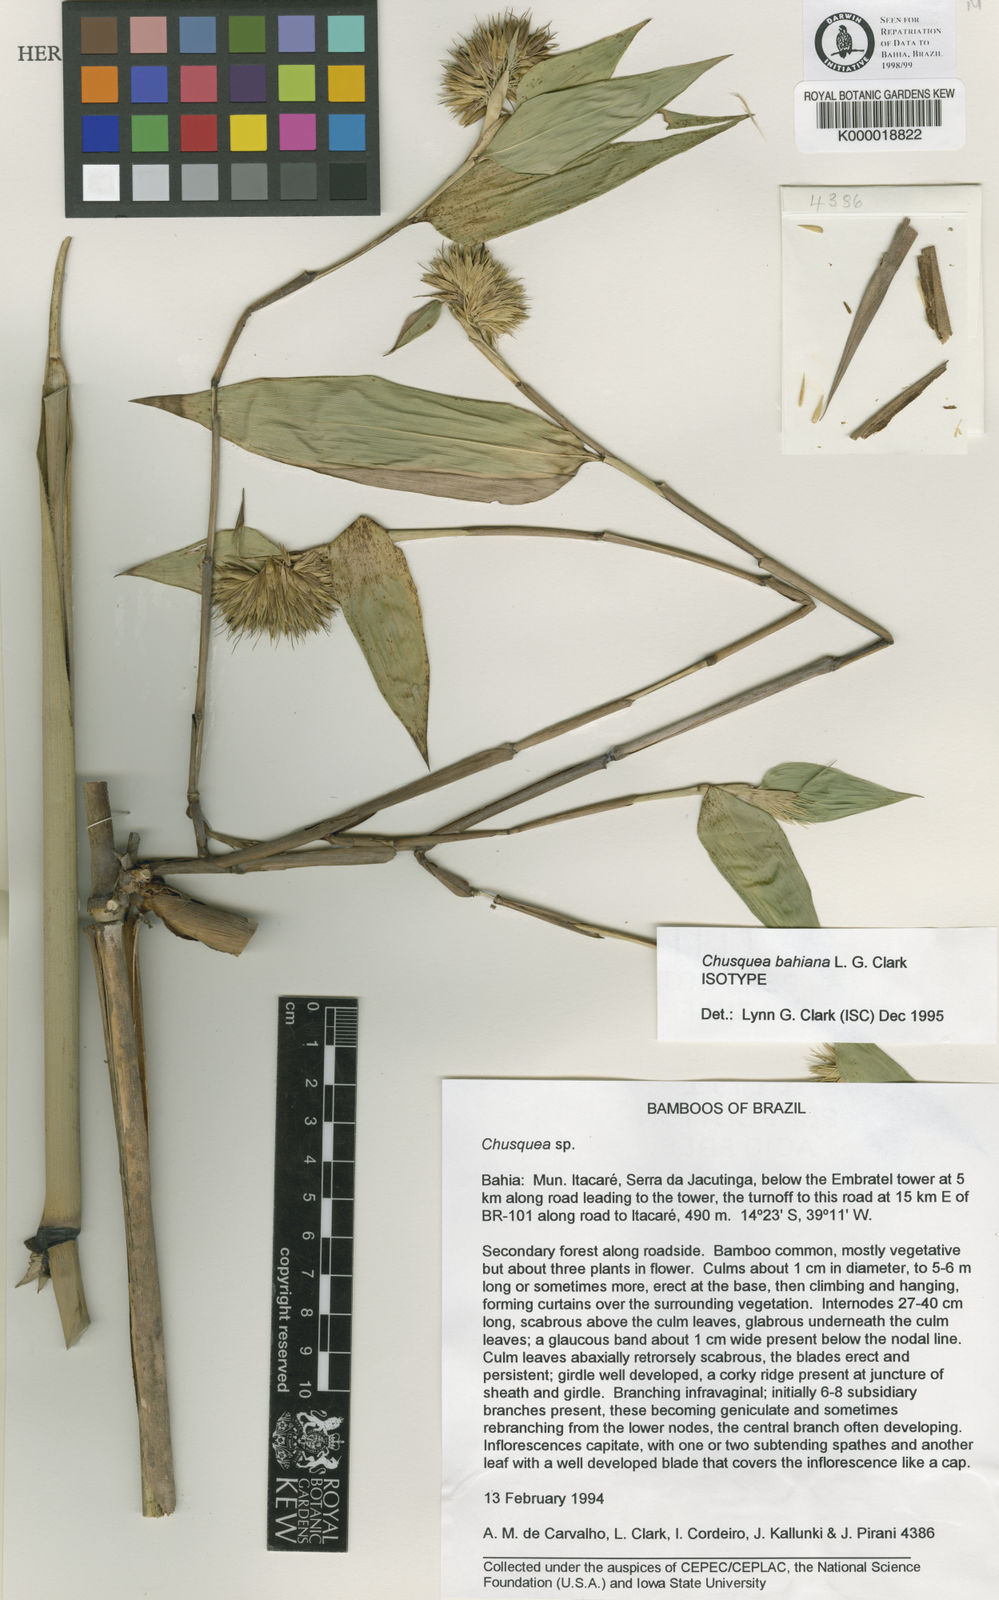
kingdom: Plantae
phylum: Tracheophyta
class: Liliopsida
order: Poales
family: Poaceae
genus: Chusquea
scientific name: Chusquea bahiana
